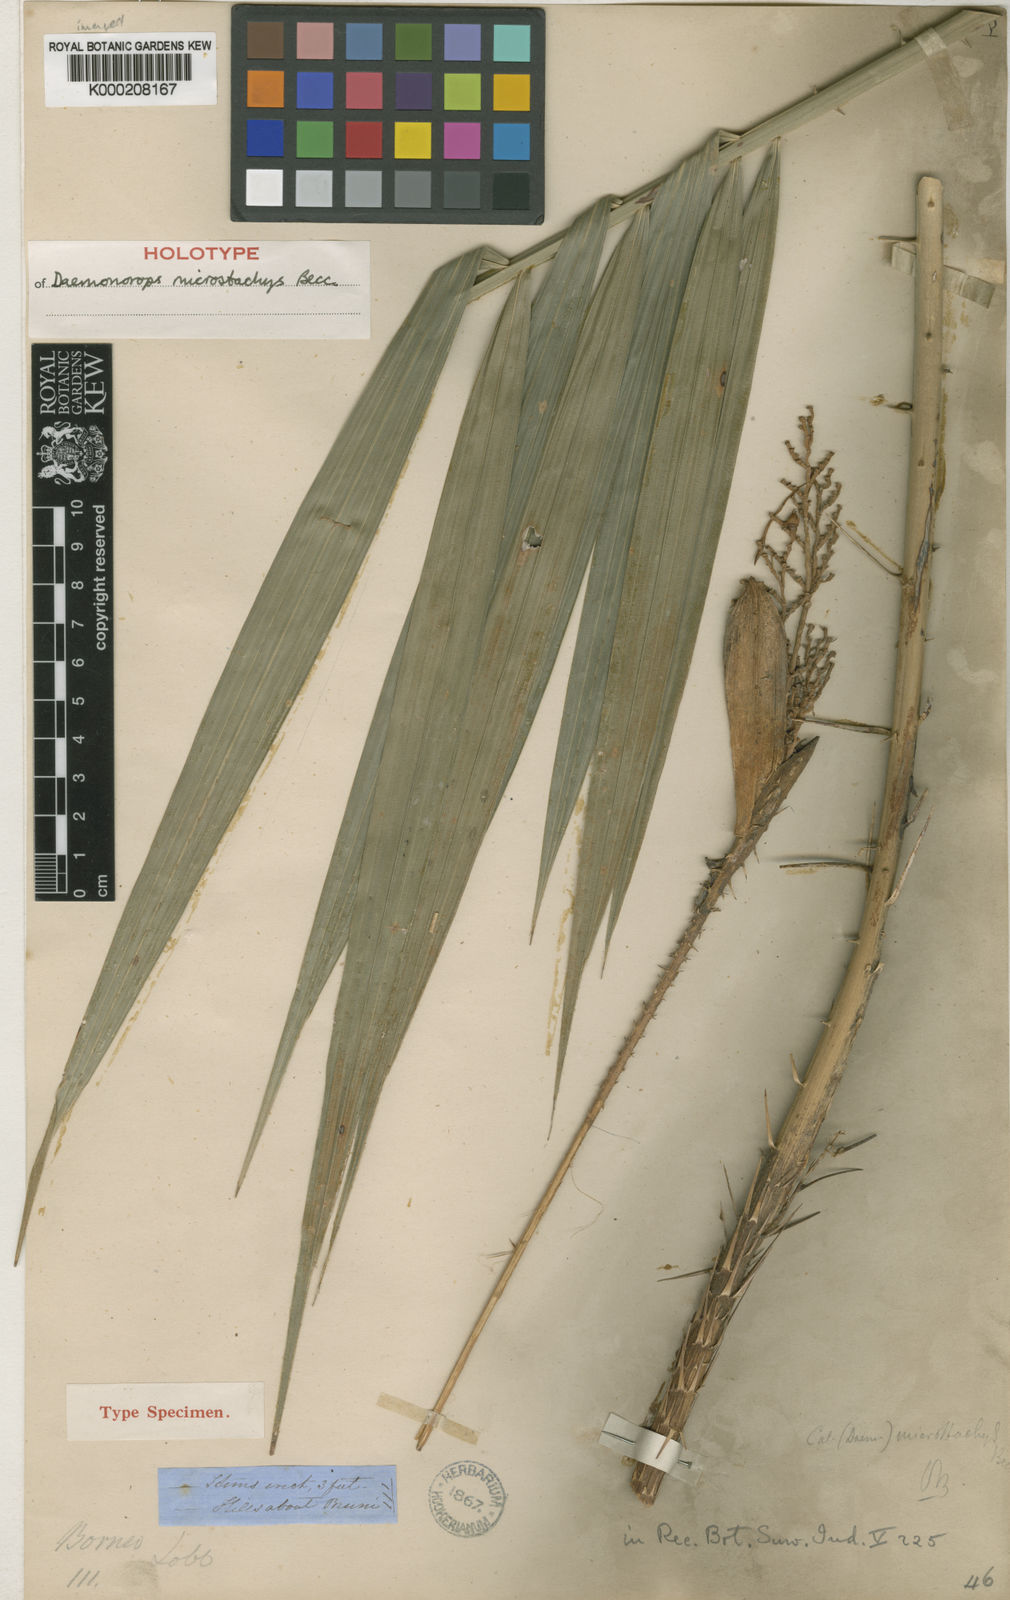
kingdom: Plantae
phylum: Tracheophyta
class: Liliopsida
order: Arecales
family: Arecaceae
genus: Calamus
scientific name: Calamus kunstleri
